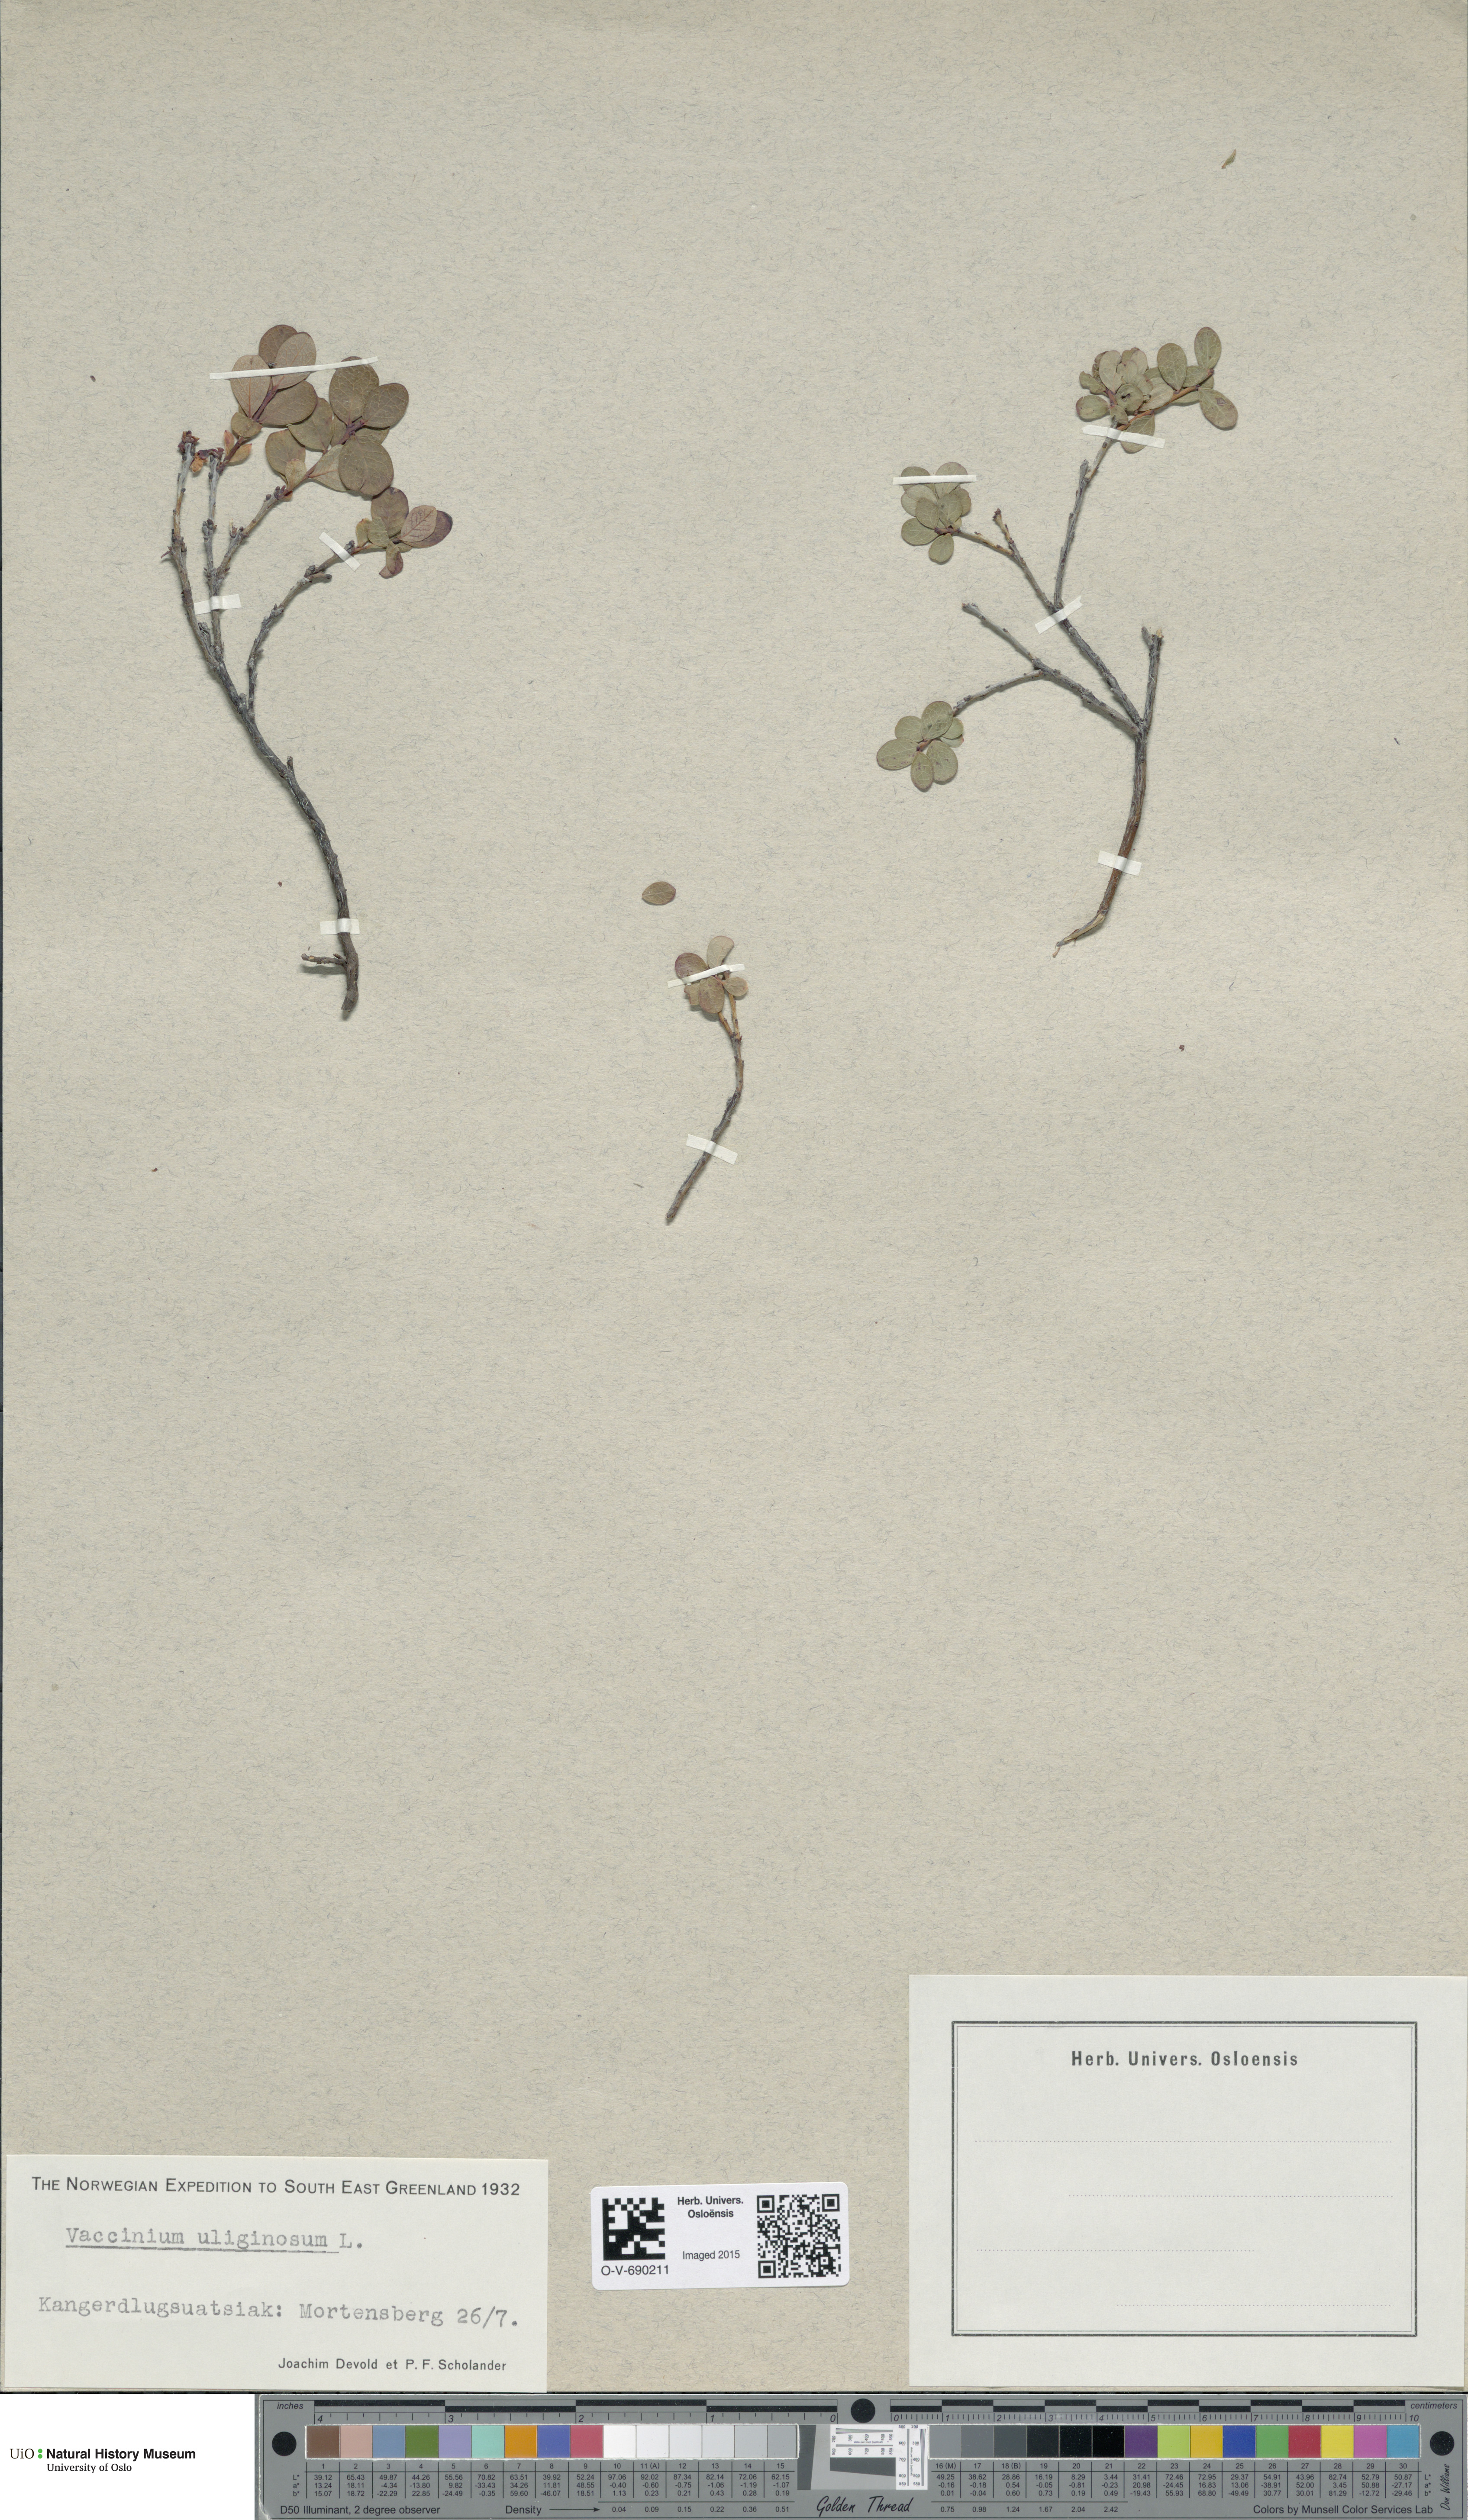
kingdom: Plantae
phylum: Tracheophyta
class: Magnoliopsida
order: Ericales
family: Ericaceae
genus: Vaccinium
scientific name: Vaccinium uliginosum
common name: Bog bilberry
